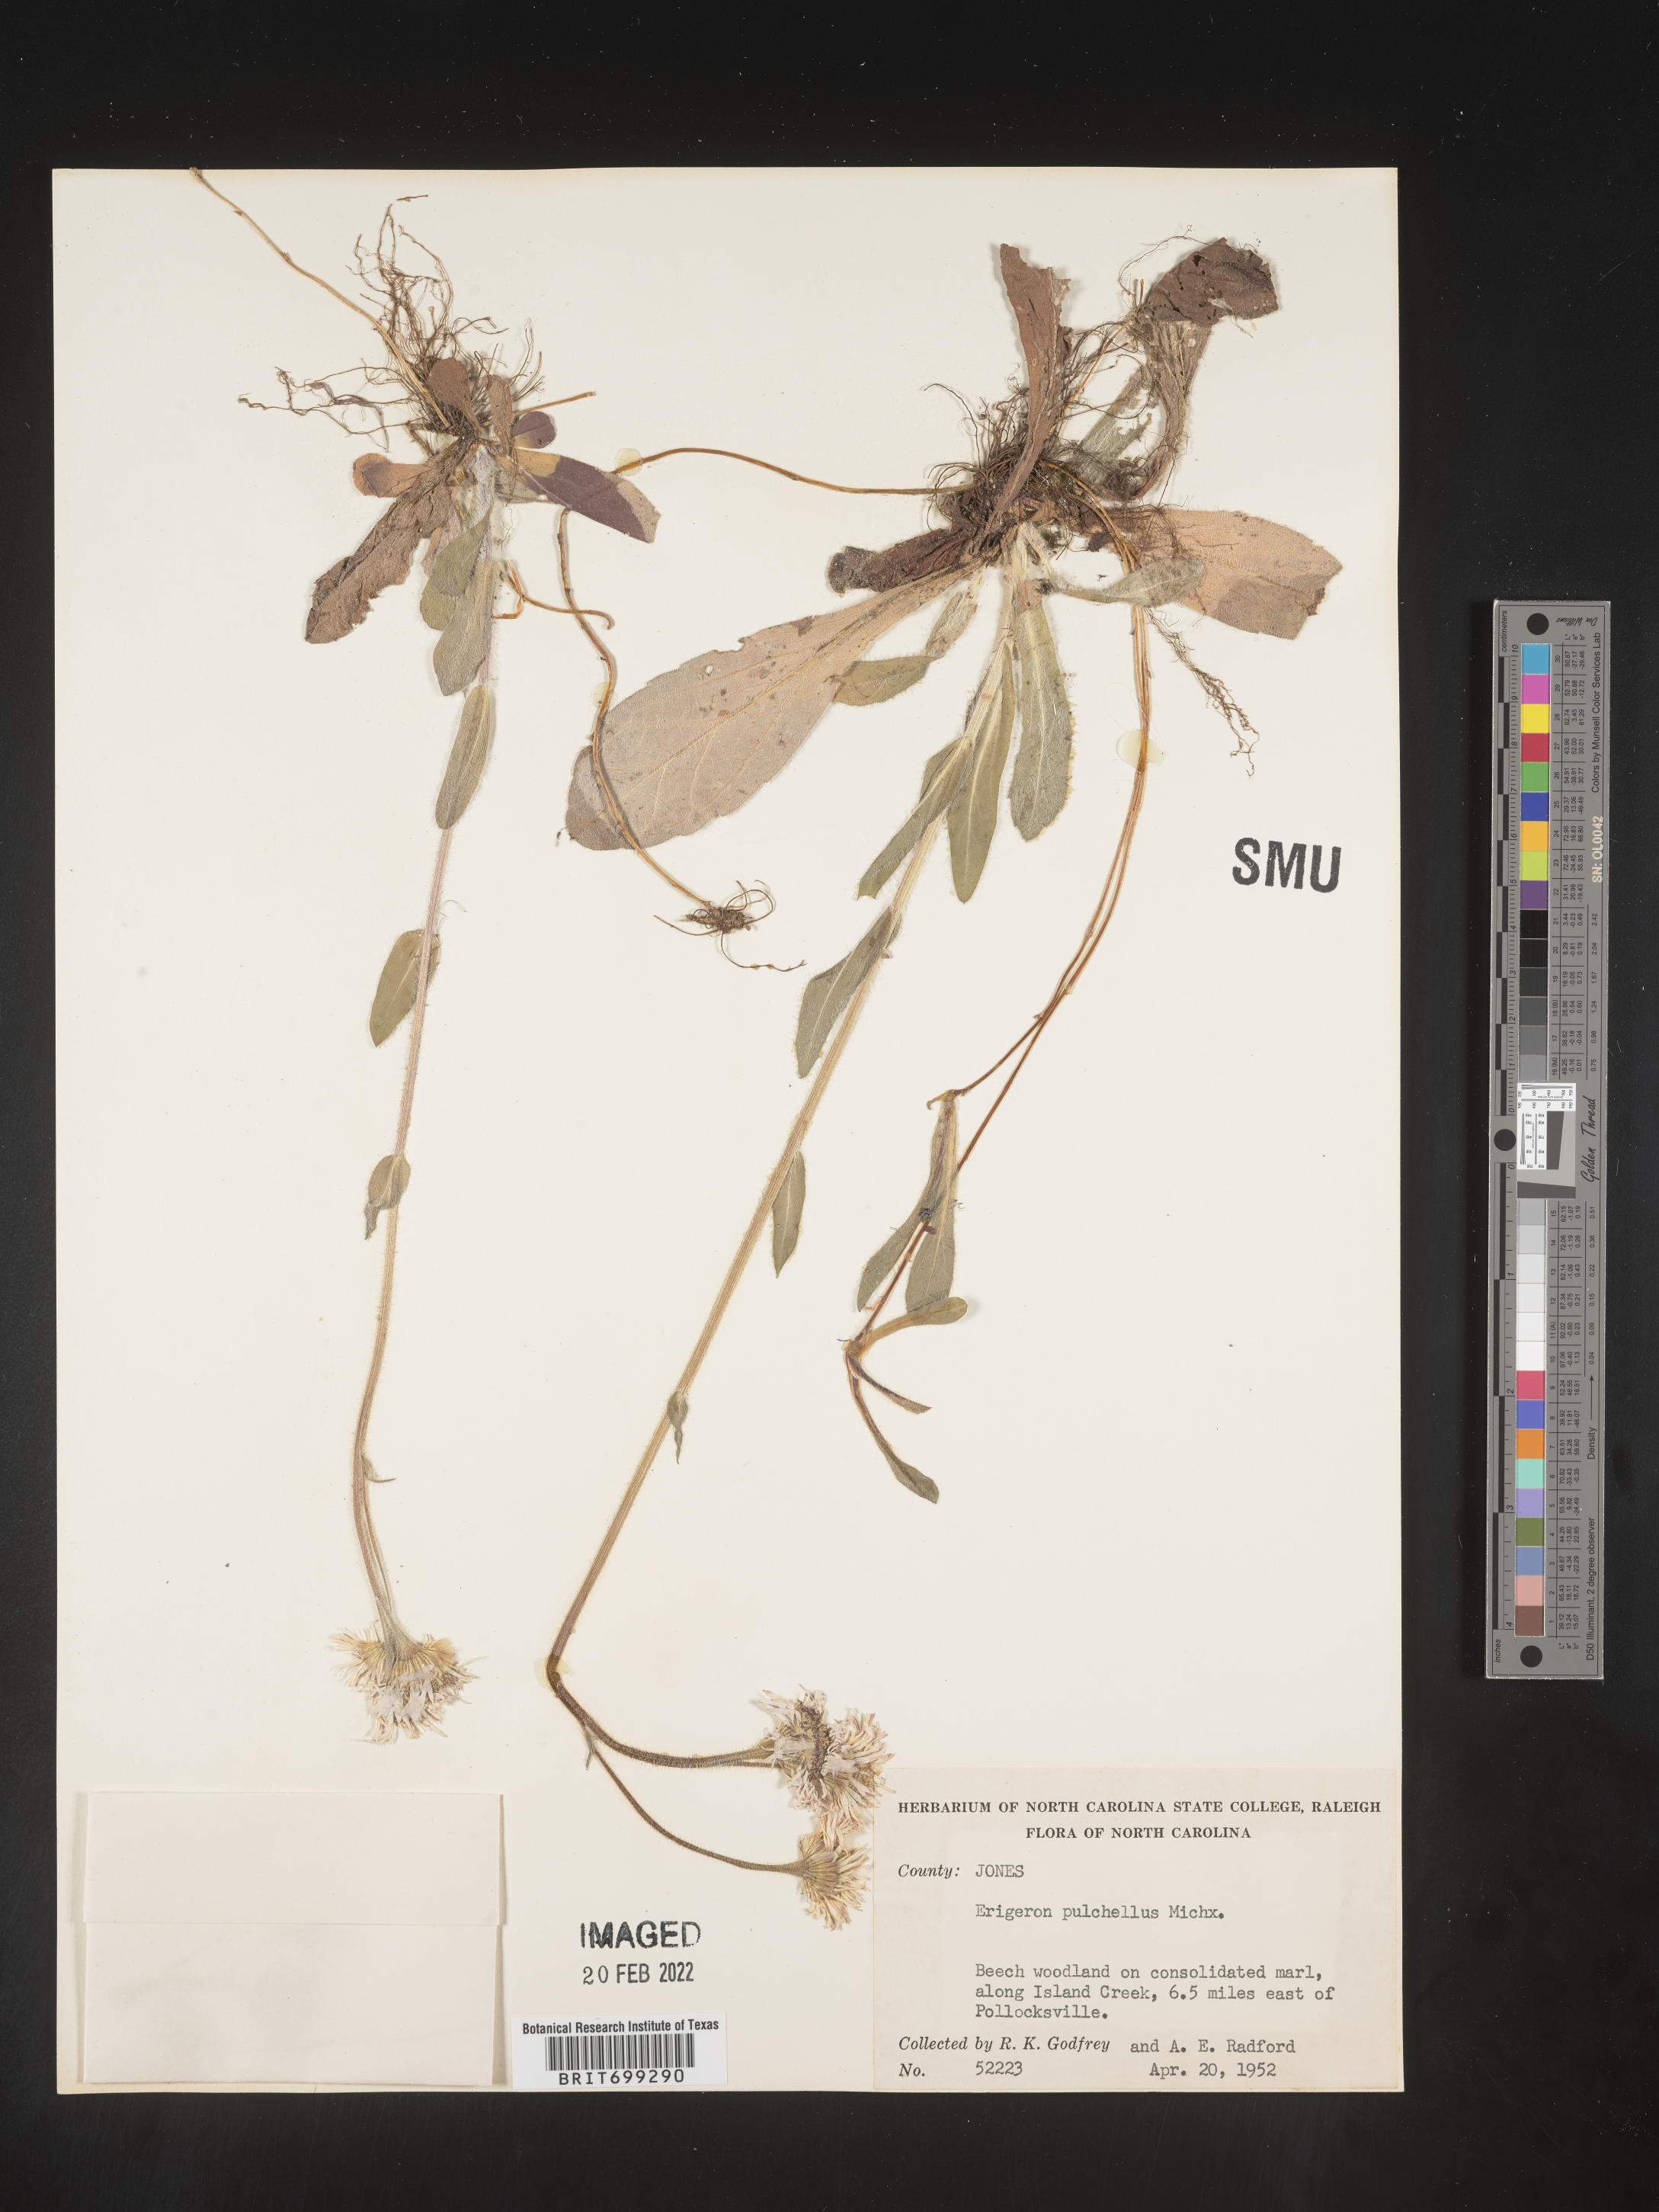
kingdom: Plantae
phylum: Tracheophyta
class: Magnoliopsida
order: Asterales
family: Asteraceae
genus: Erigeron
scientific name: Erigeron pulchellus
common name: Hairy fleabane
